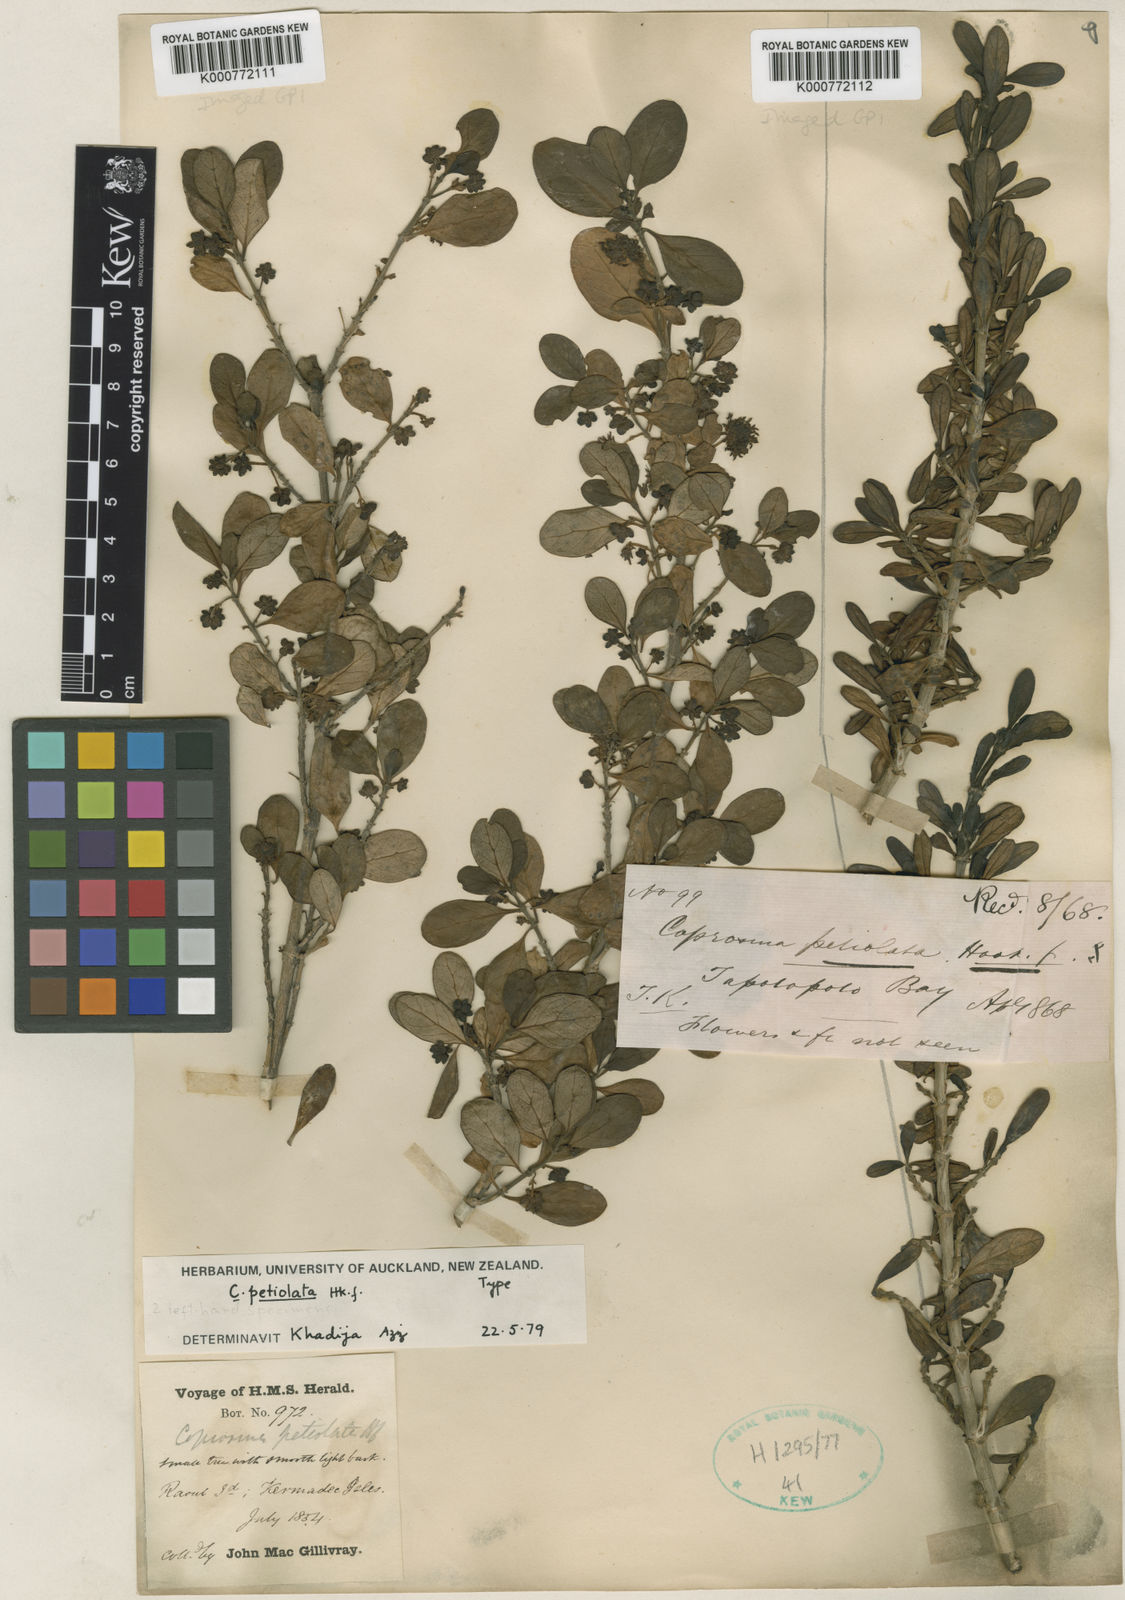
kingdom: Plantae
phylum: Tracheophyta
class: Magnoliopsida
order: Gentianales
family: Rubiaceae
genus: Coprosma
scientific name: Coprosma petiolata
